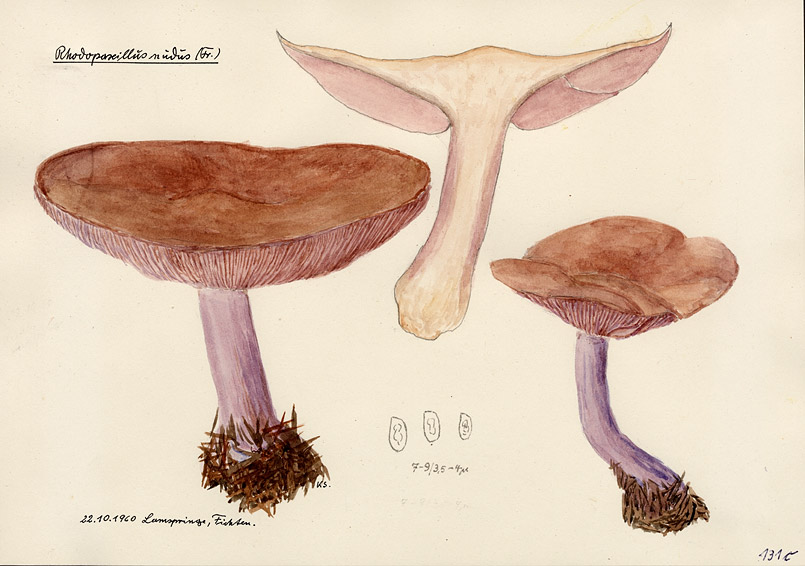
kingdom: Fungi
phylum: Basidiomycota
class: Agaricomycetes
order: Agaricales
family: Tricholomataceae
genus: Lepista
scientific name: Lepista nuda
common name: Wood blewit
